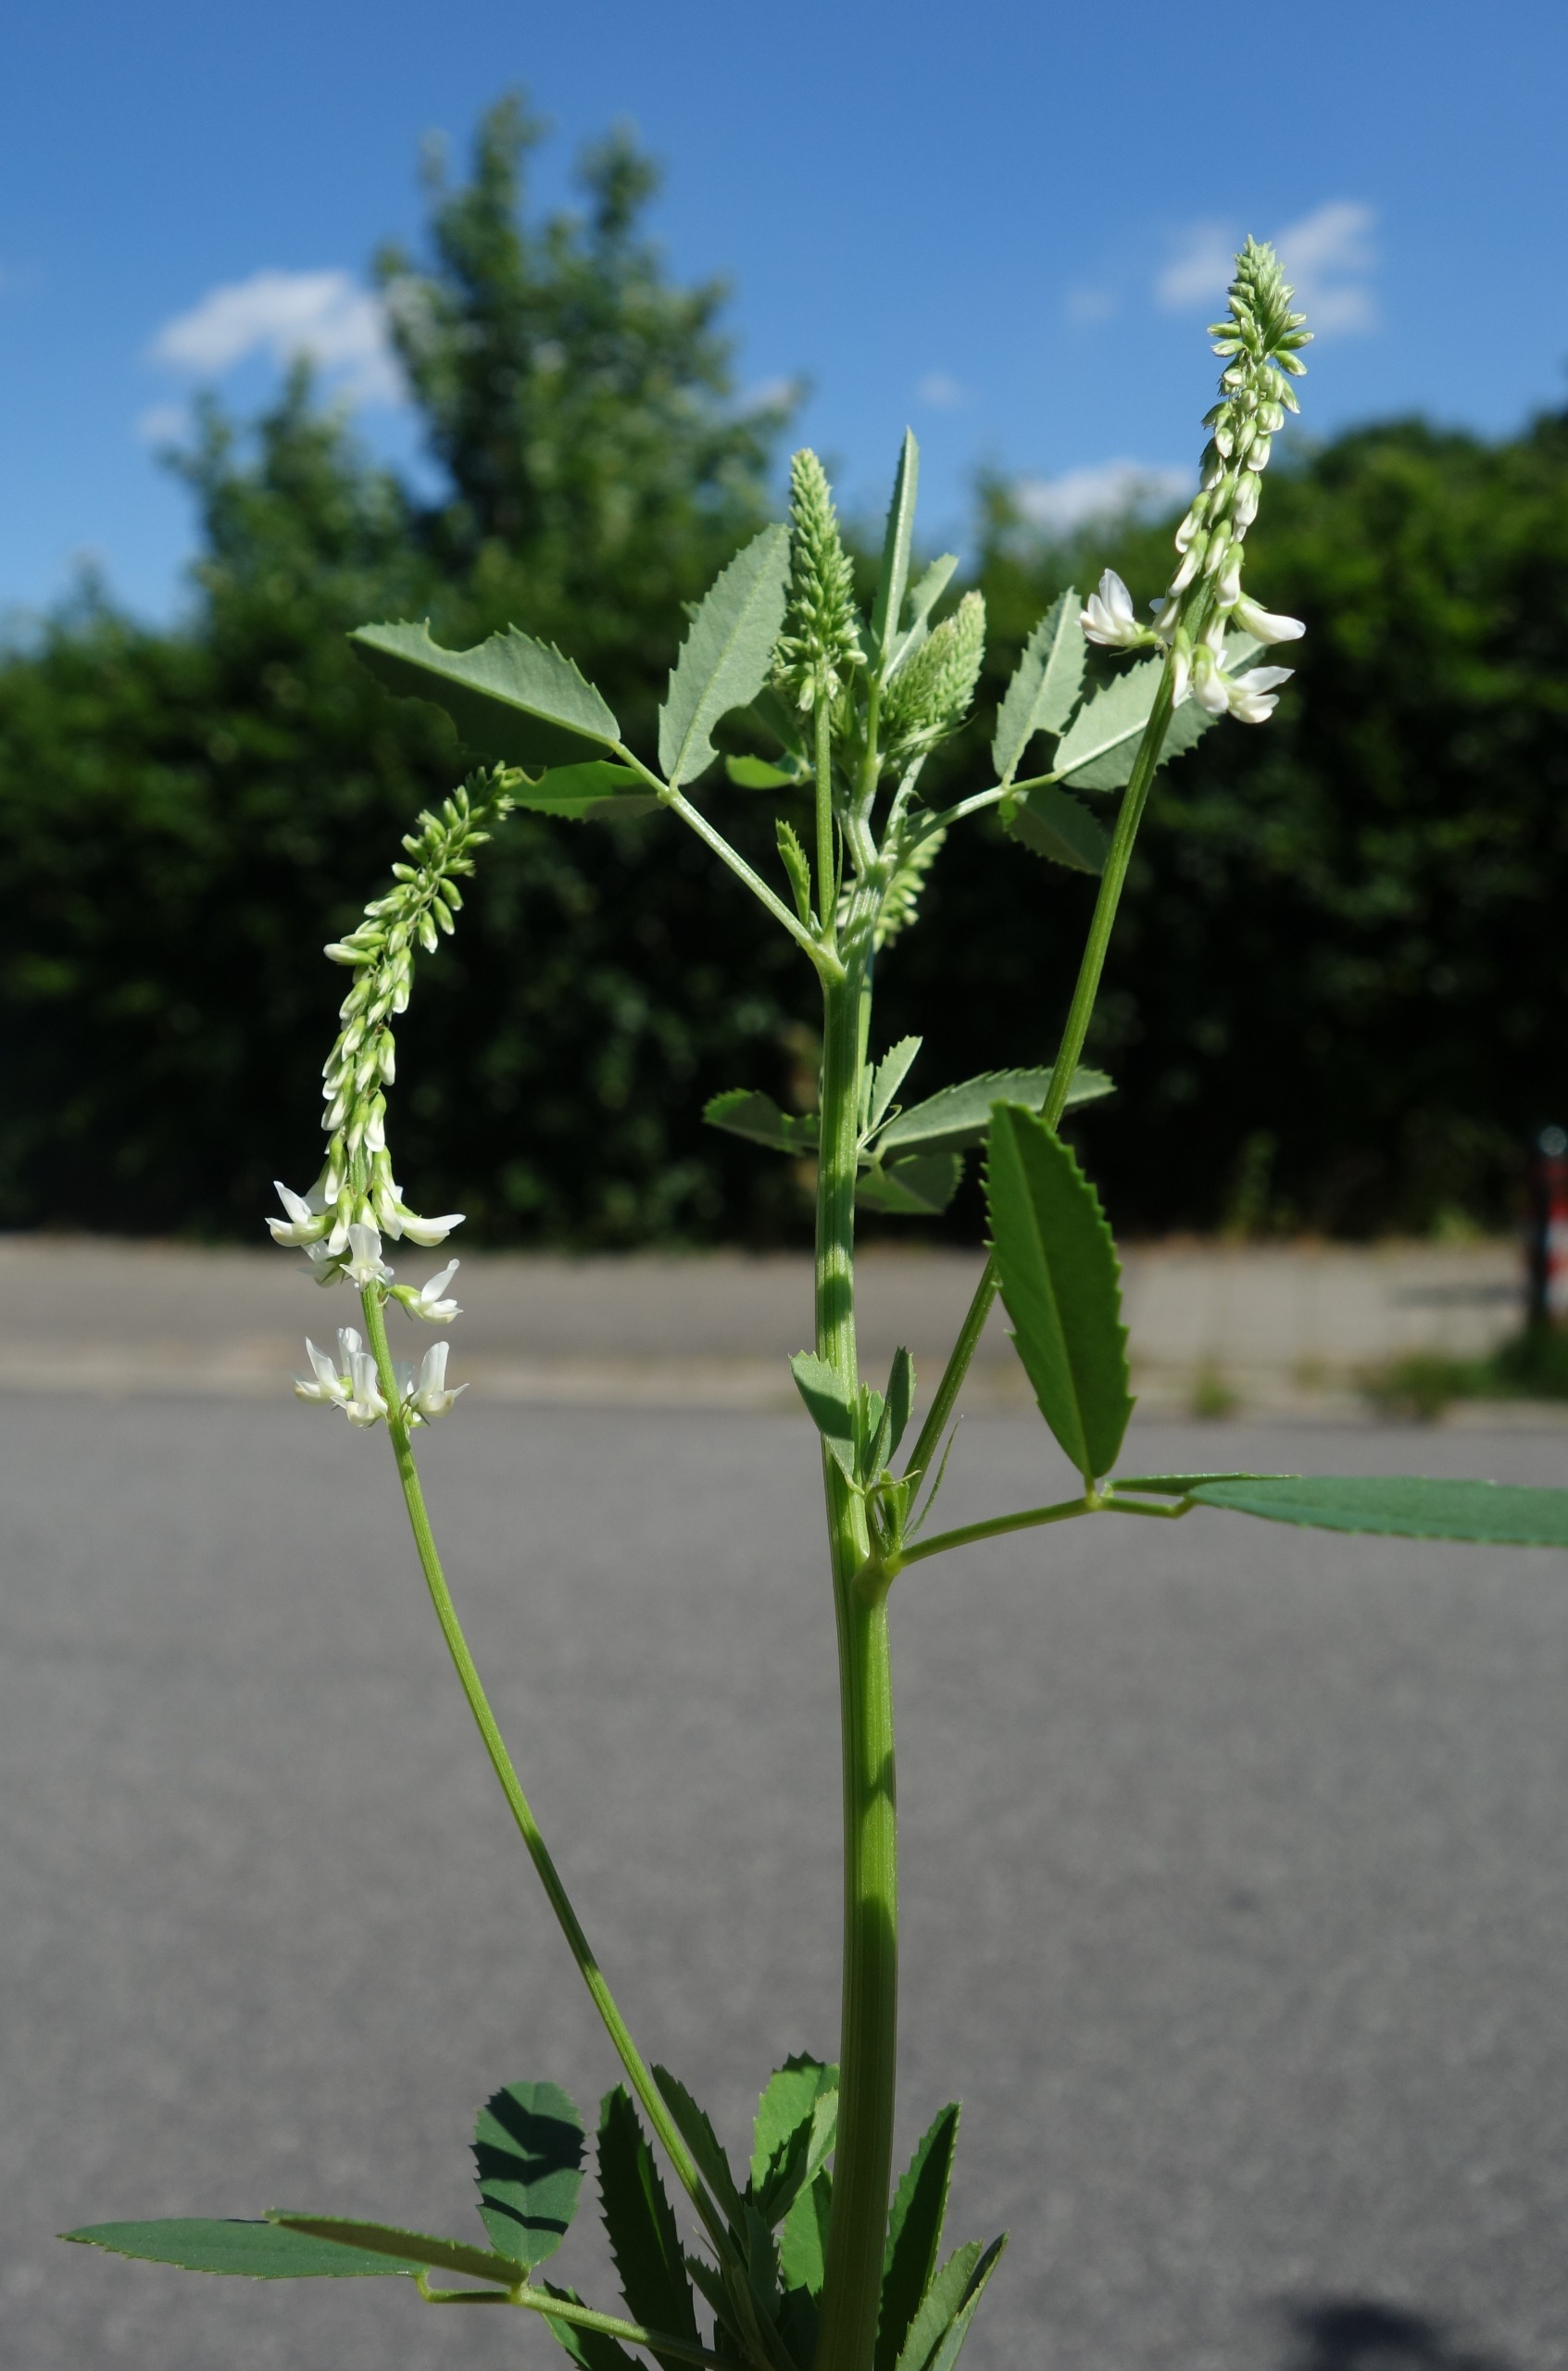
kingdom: Plantae
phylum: Tracheophyta
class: Magnoliopsida
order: Fabales
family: Fabaceae
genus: Melilotus
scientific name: Melilotus albus
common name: Hvid stenkløver
